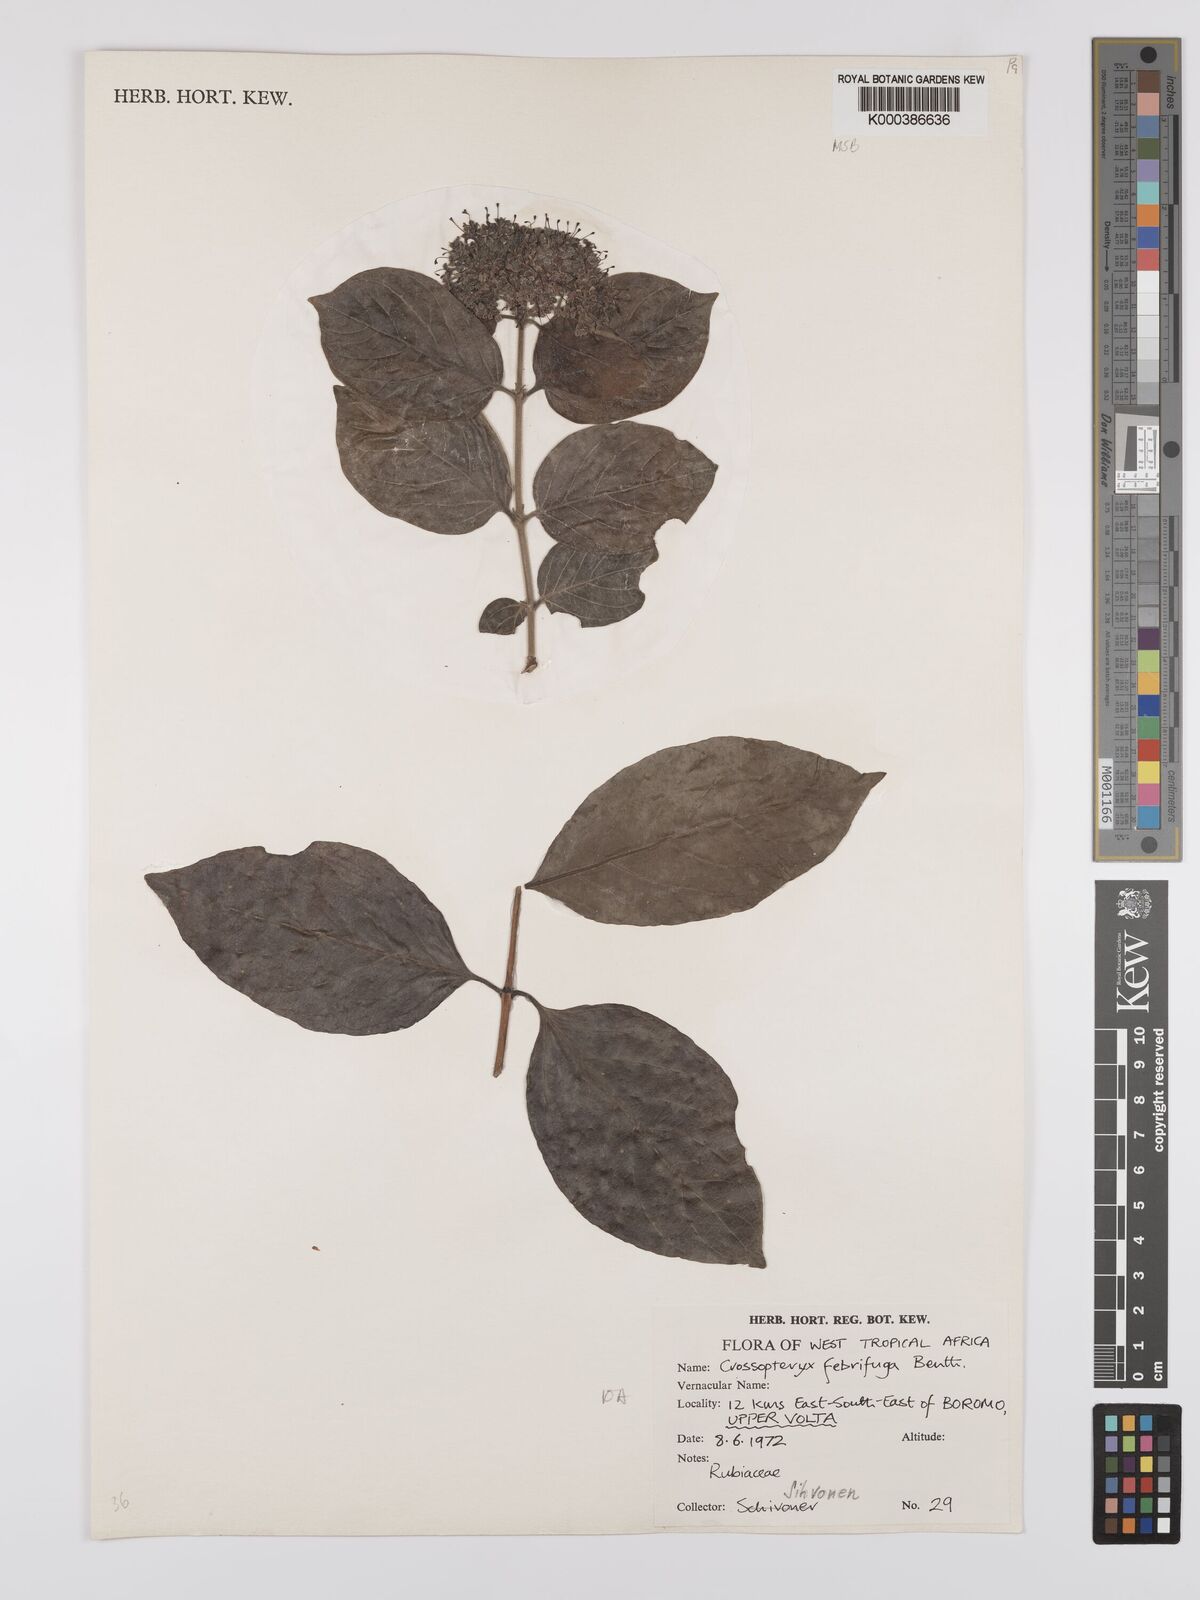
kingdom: Plantae
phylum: Tracheophyta
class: Magnoliopsida
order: Gentianales
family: Rubiaceae
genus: Crossopteryx
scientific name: Crossopteryx febrifuga
